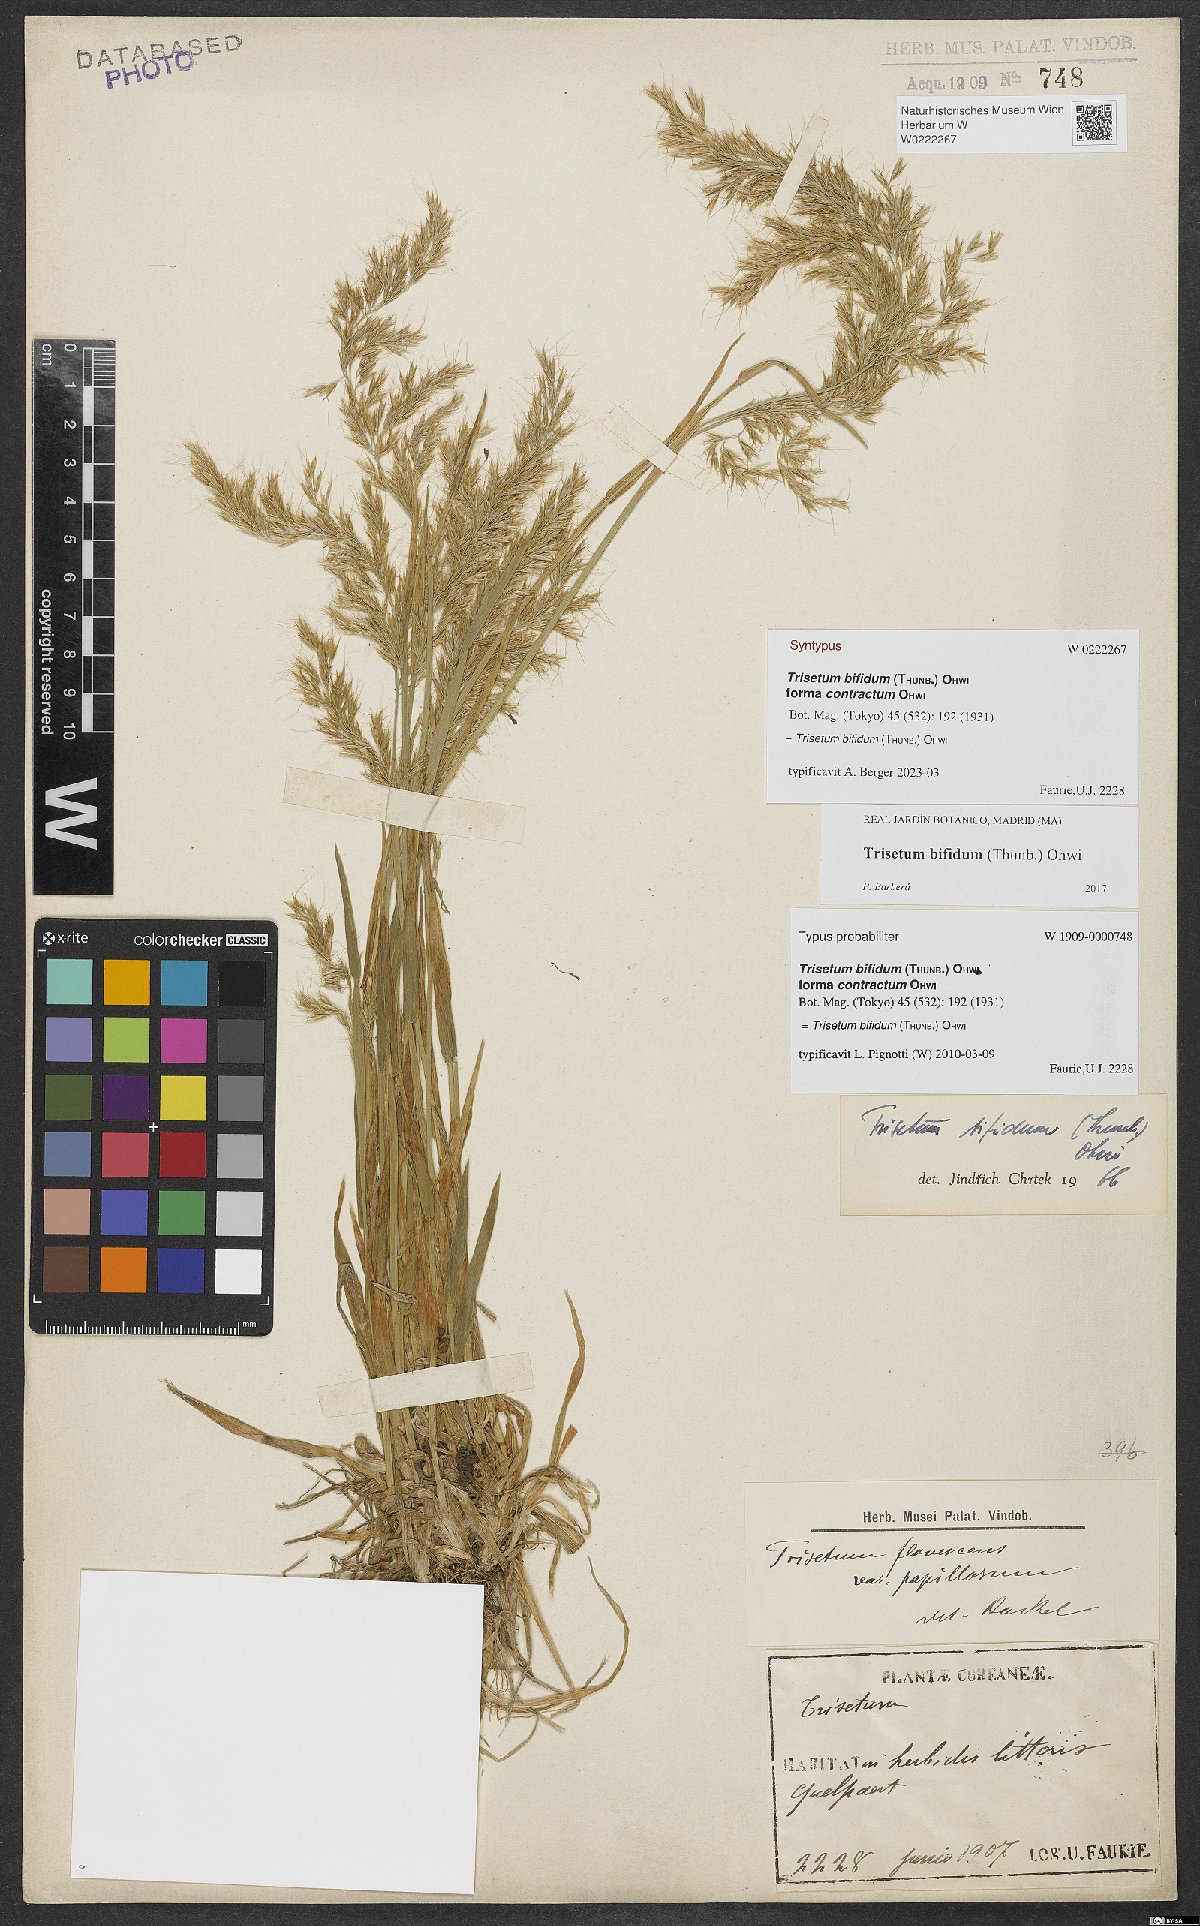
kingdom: Plantae
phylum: Tracheophyta
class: Liliopsida
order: Poales
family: Poaceae
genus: Sibirotrisetum
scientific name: Sibirotrisetum bifidum
